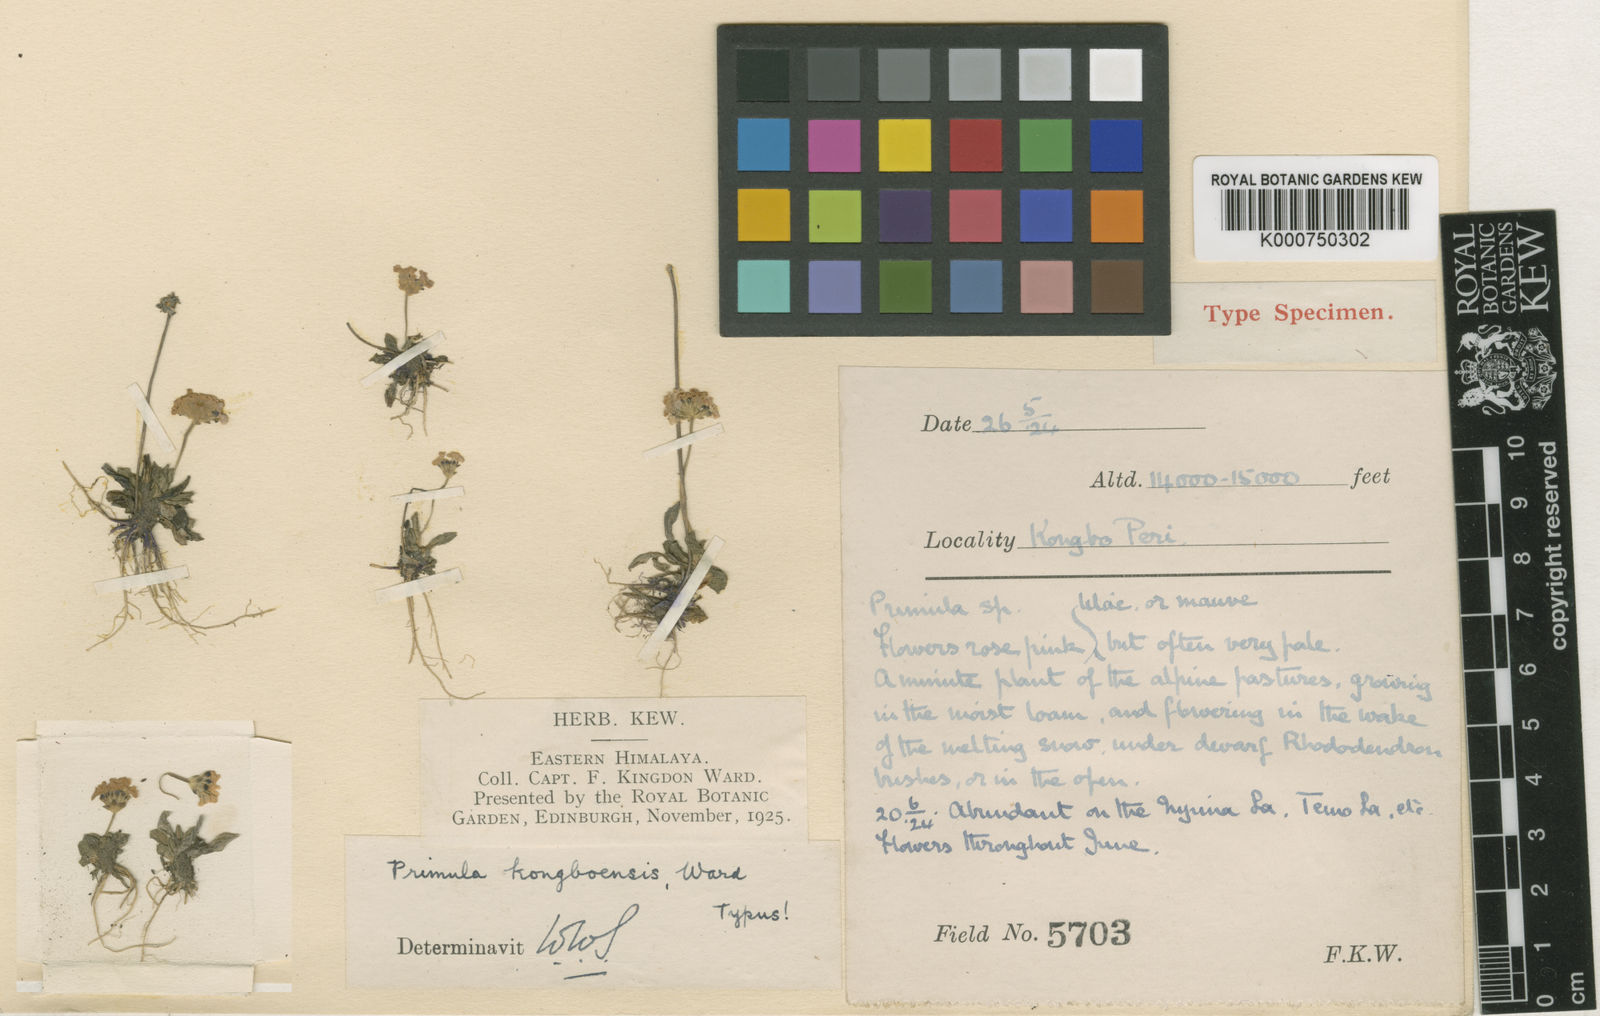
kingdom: Plantae
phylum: Tracheophyta
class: Magnoliopsida
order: Ericales
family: Primulaceae
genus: Primula
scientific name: Primula glabra
